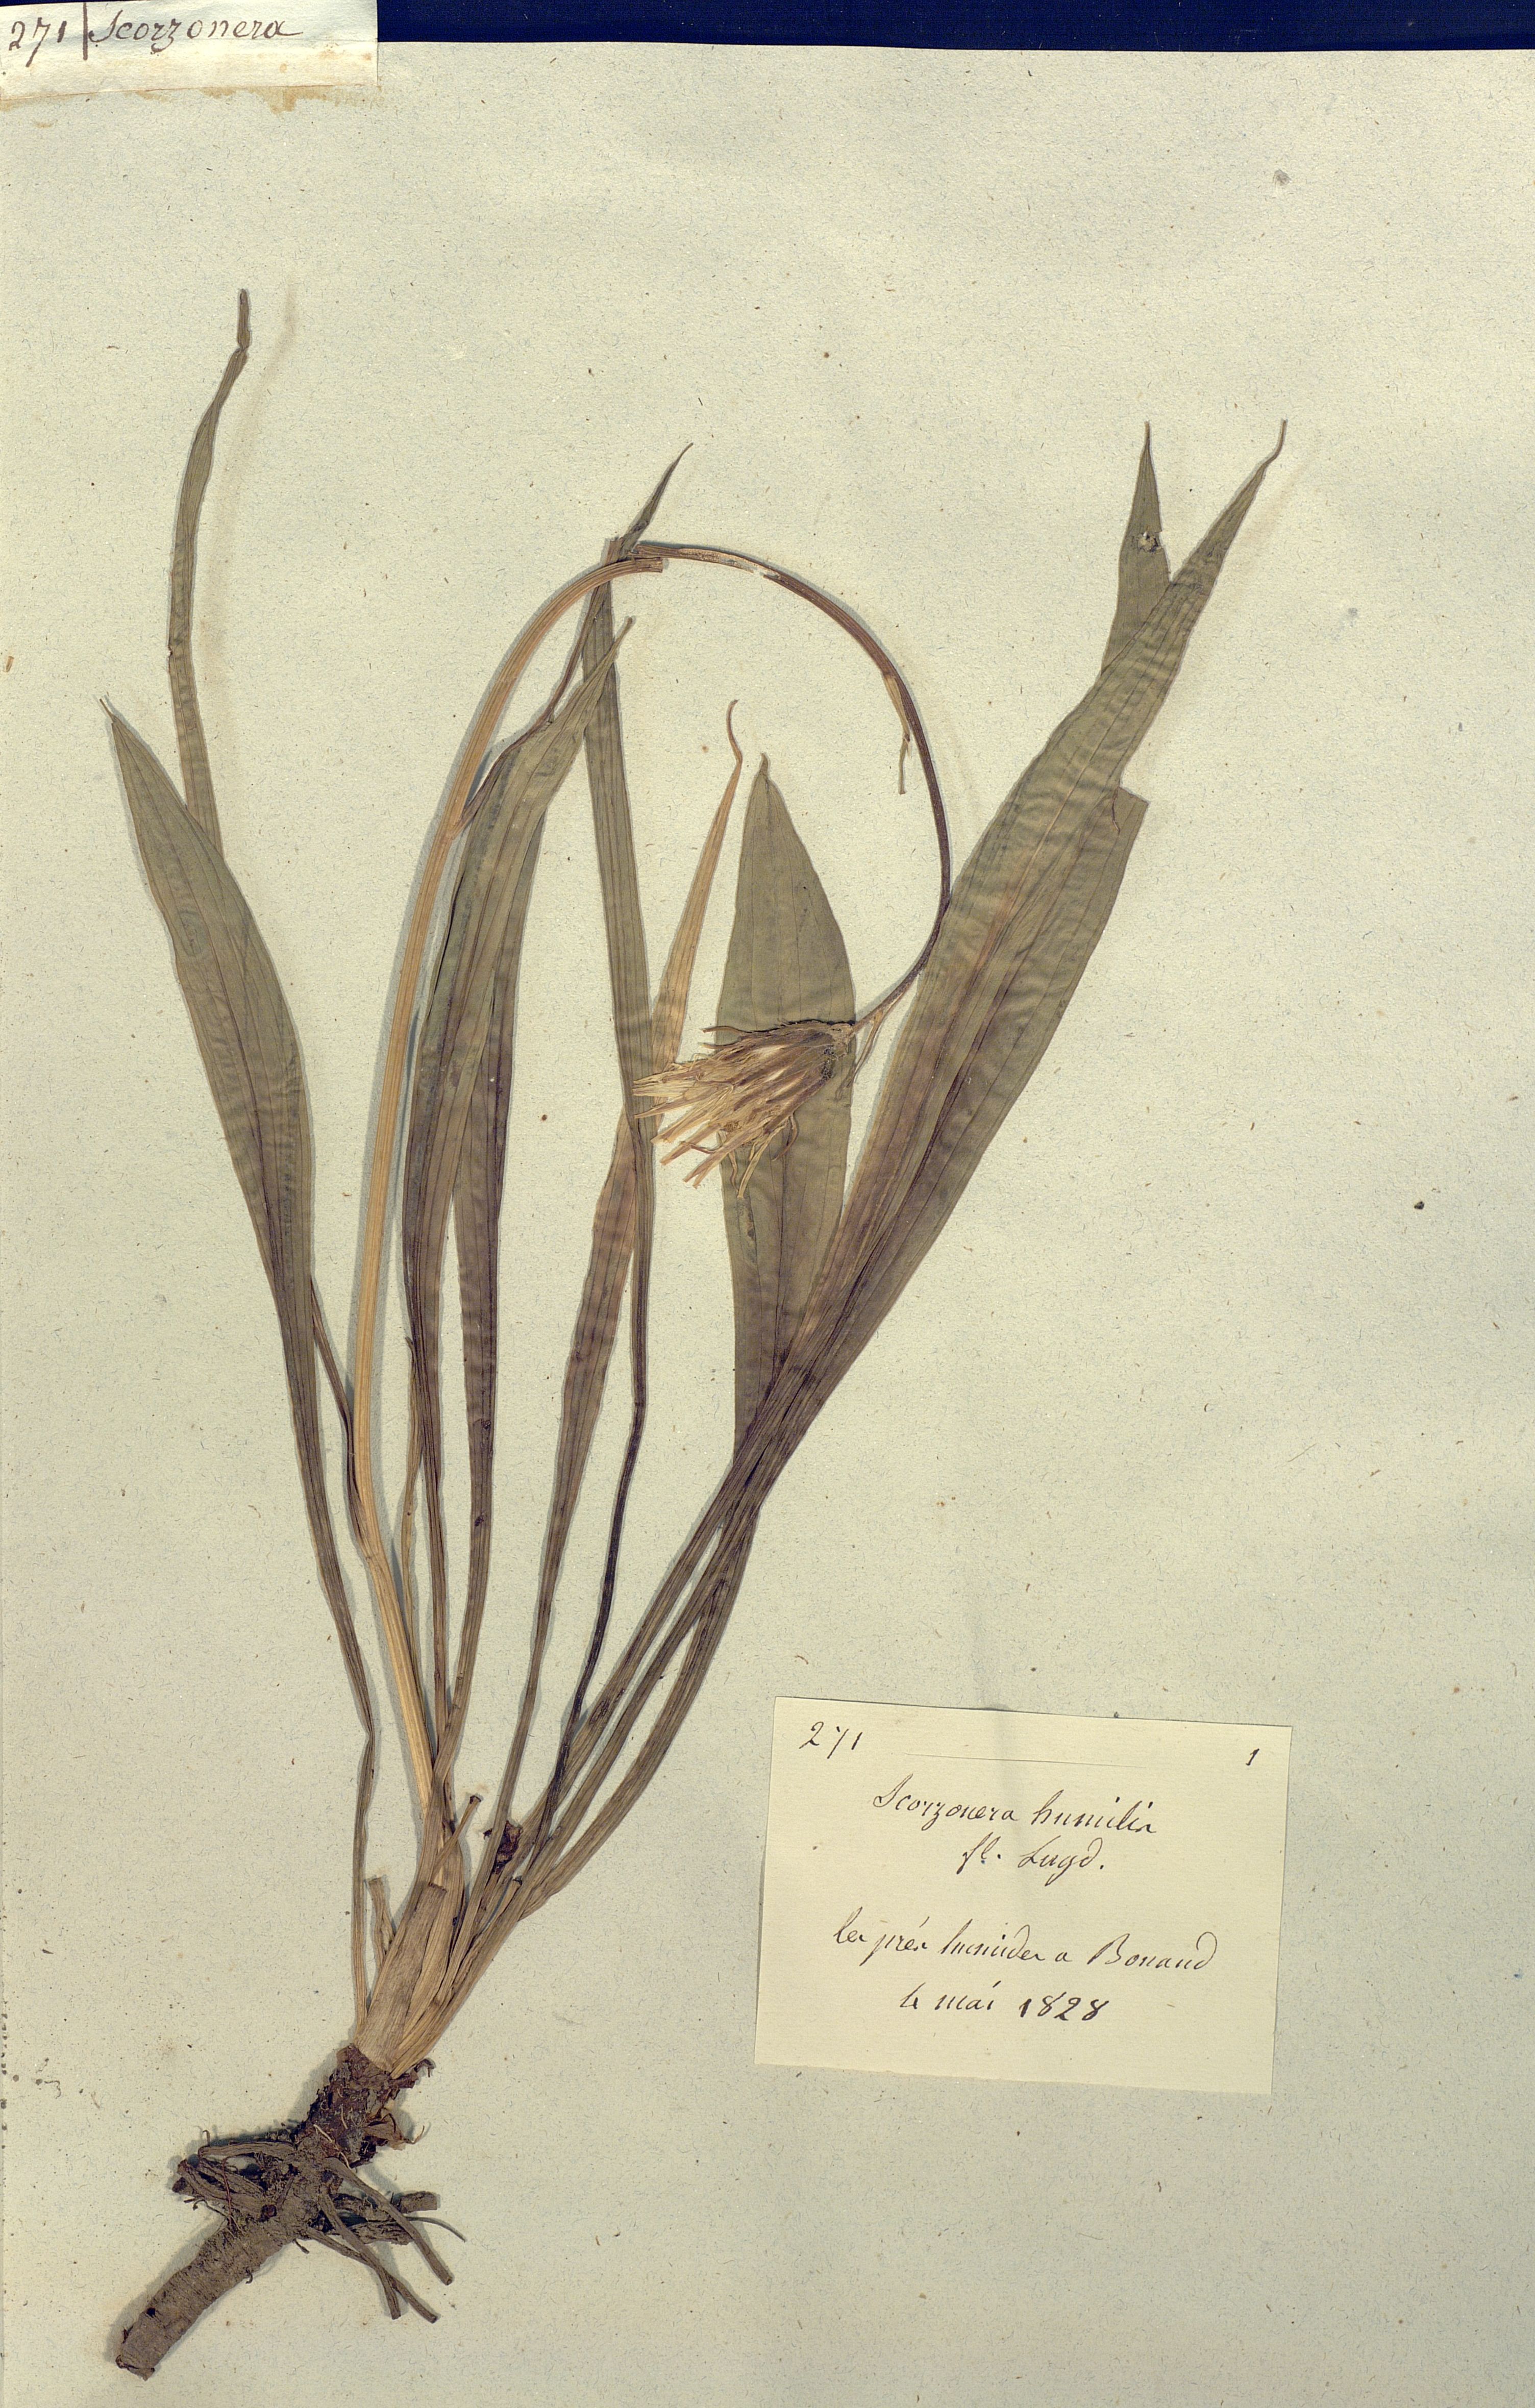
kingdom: Plantae
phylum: Tracheophyta
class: Magnoliopsida
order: Asterales
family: Asteraceae
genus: Scorzonera
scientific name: Scorzonera humilis
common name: Viper's-grass
